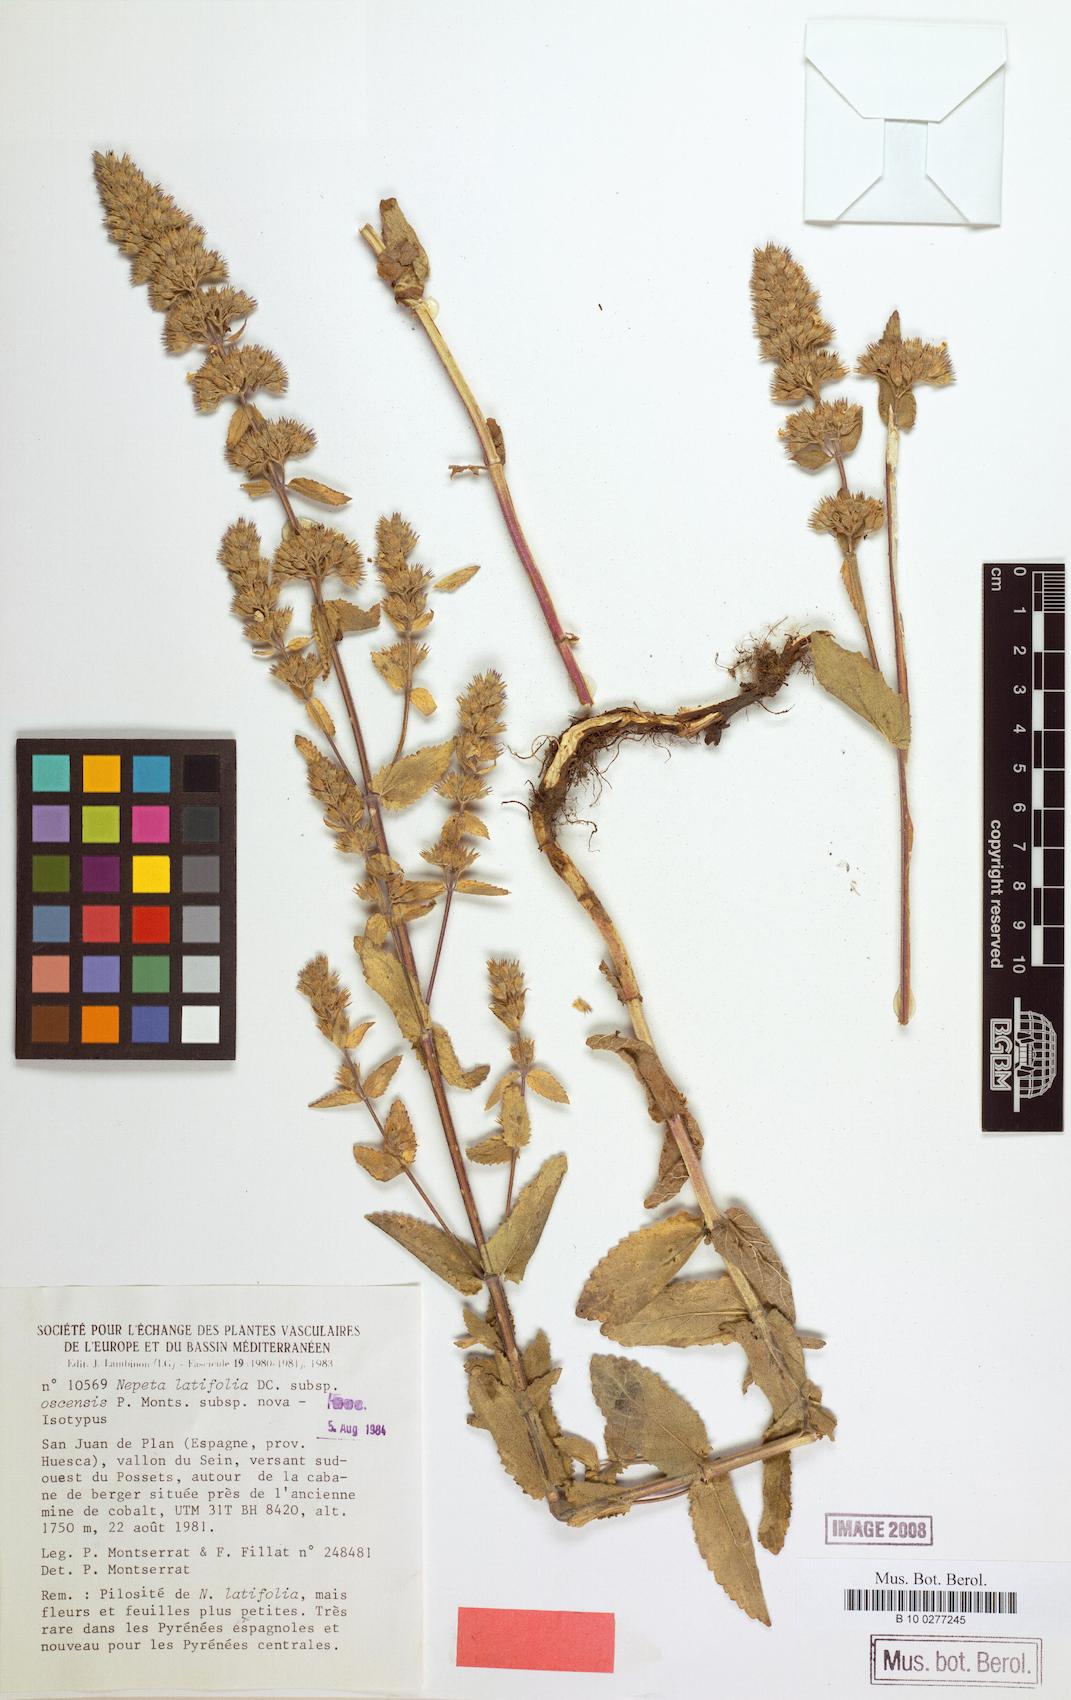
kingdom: Plantae
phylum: Tracheophyta
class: Magnoliopsida
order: Lamiales
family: Lamiaceae
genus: Nepeta
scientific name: Nepeta latifolia
